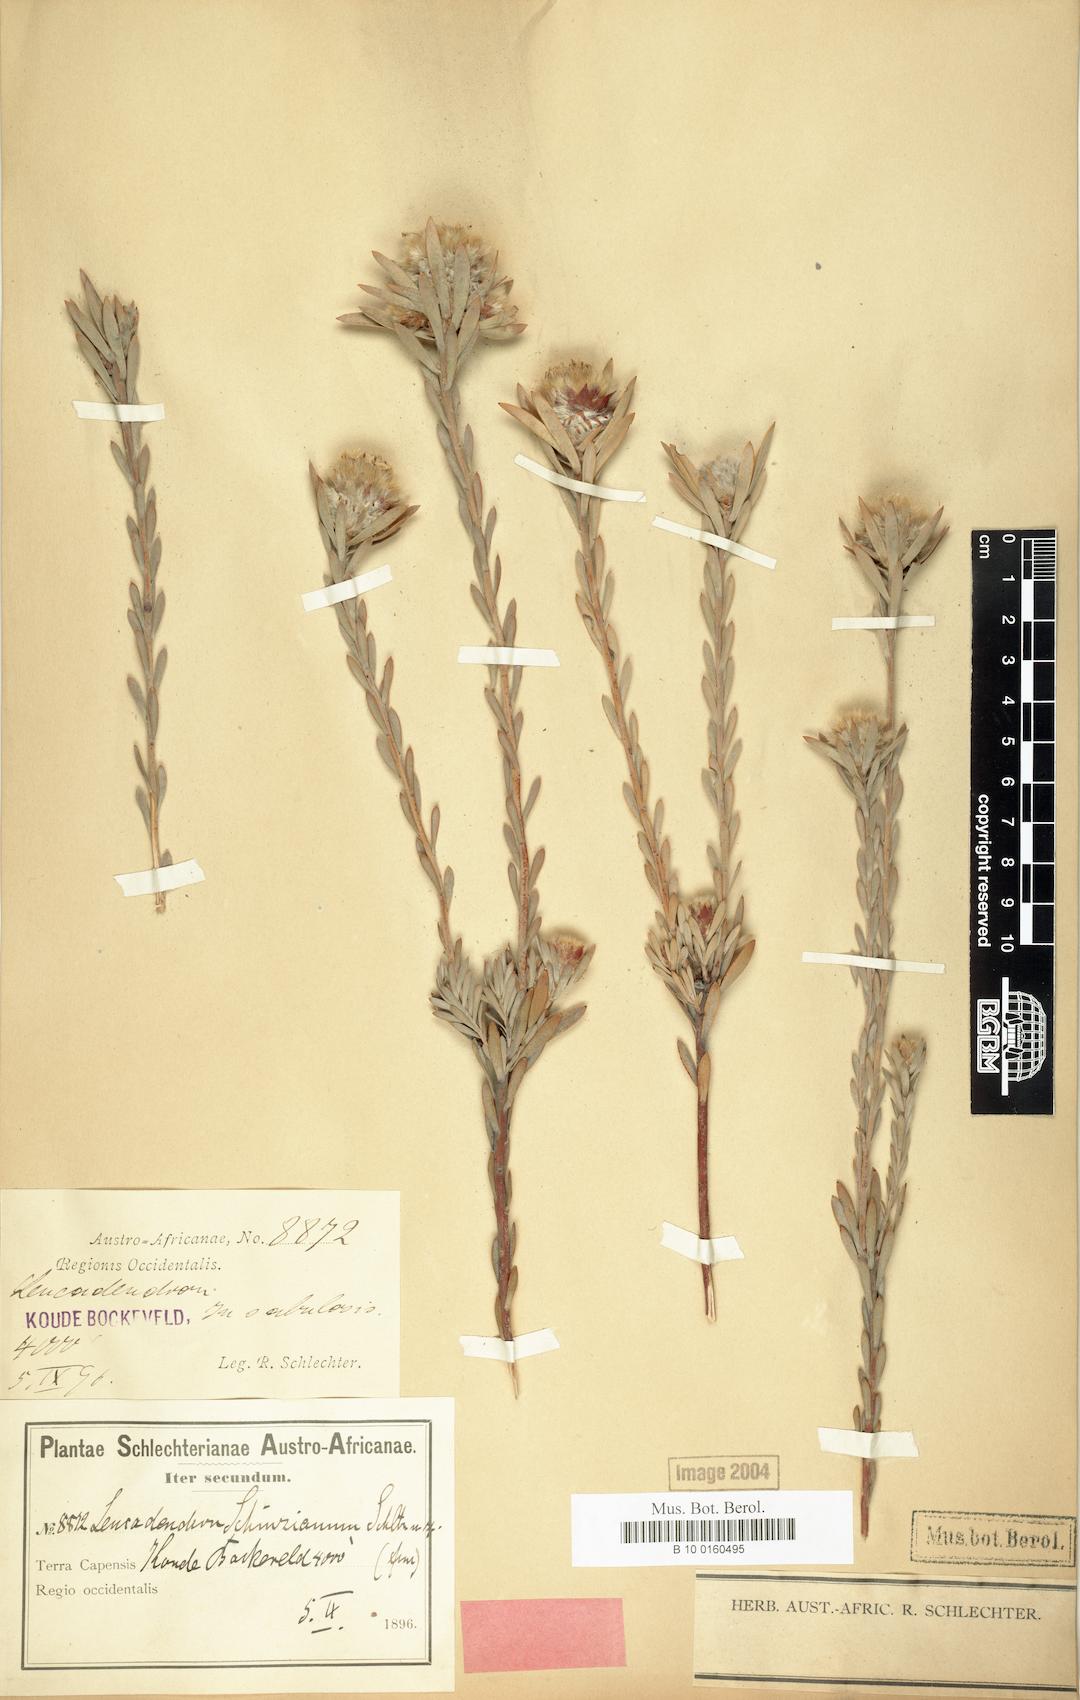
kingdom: Plantae
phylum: Tracheophyta
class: Magnoliopsida
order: Proteales
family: Proteaceae
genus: Leucadendron
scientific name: Leucadendron nitidum
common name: Bokkeveld conebush
